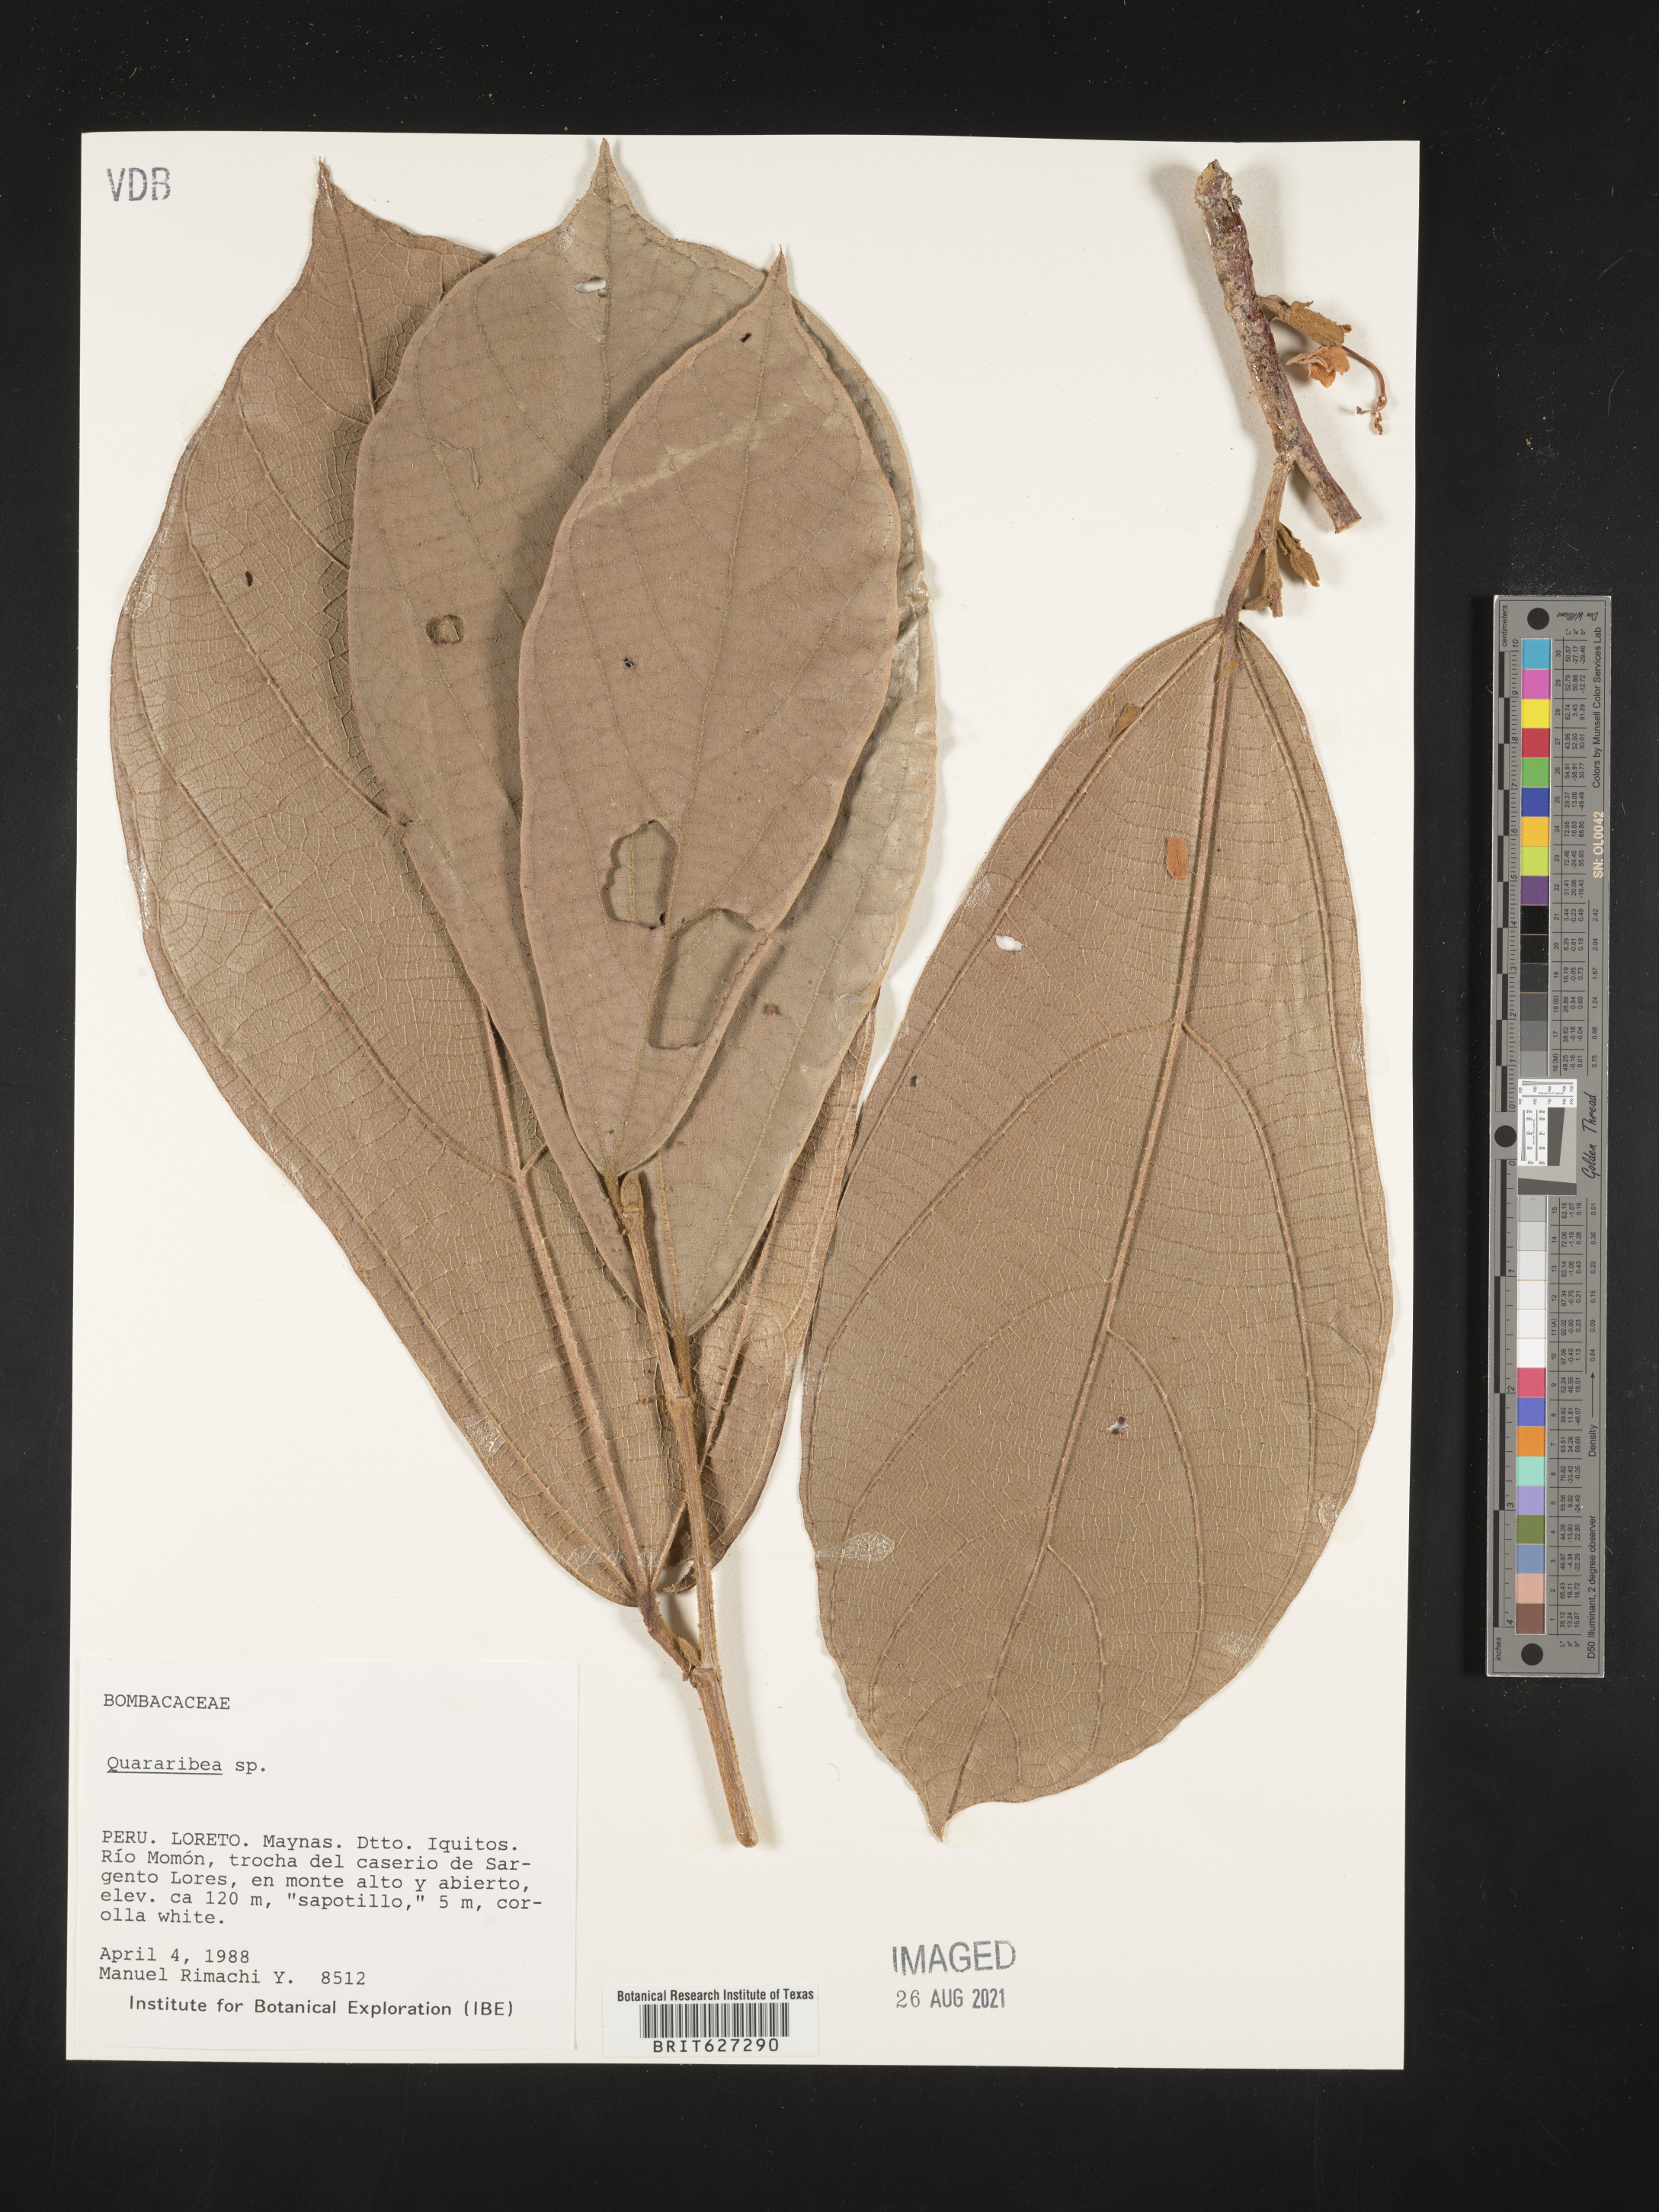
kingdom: Plantae
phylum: Tracheophyta
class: Magnoliopsida
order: Malvales
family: Malvaceae
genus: Quararibea
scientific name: Quararibea
